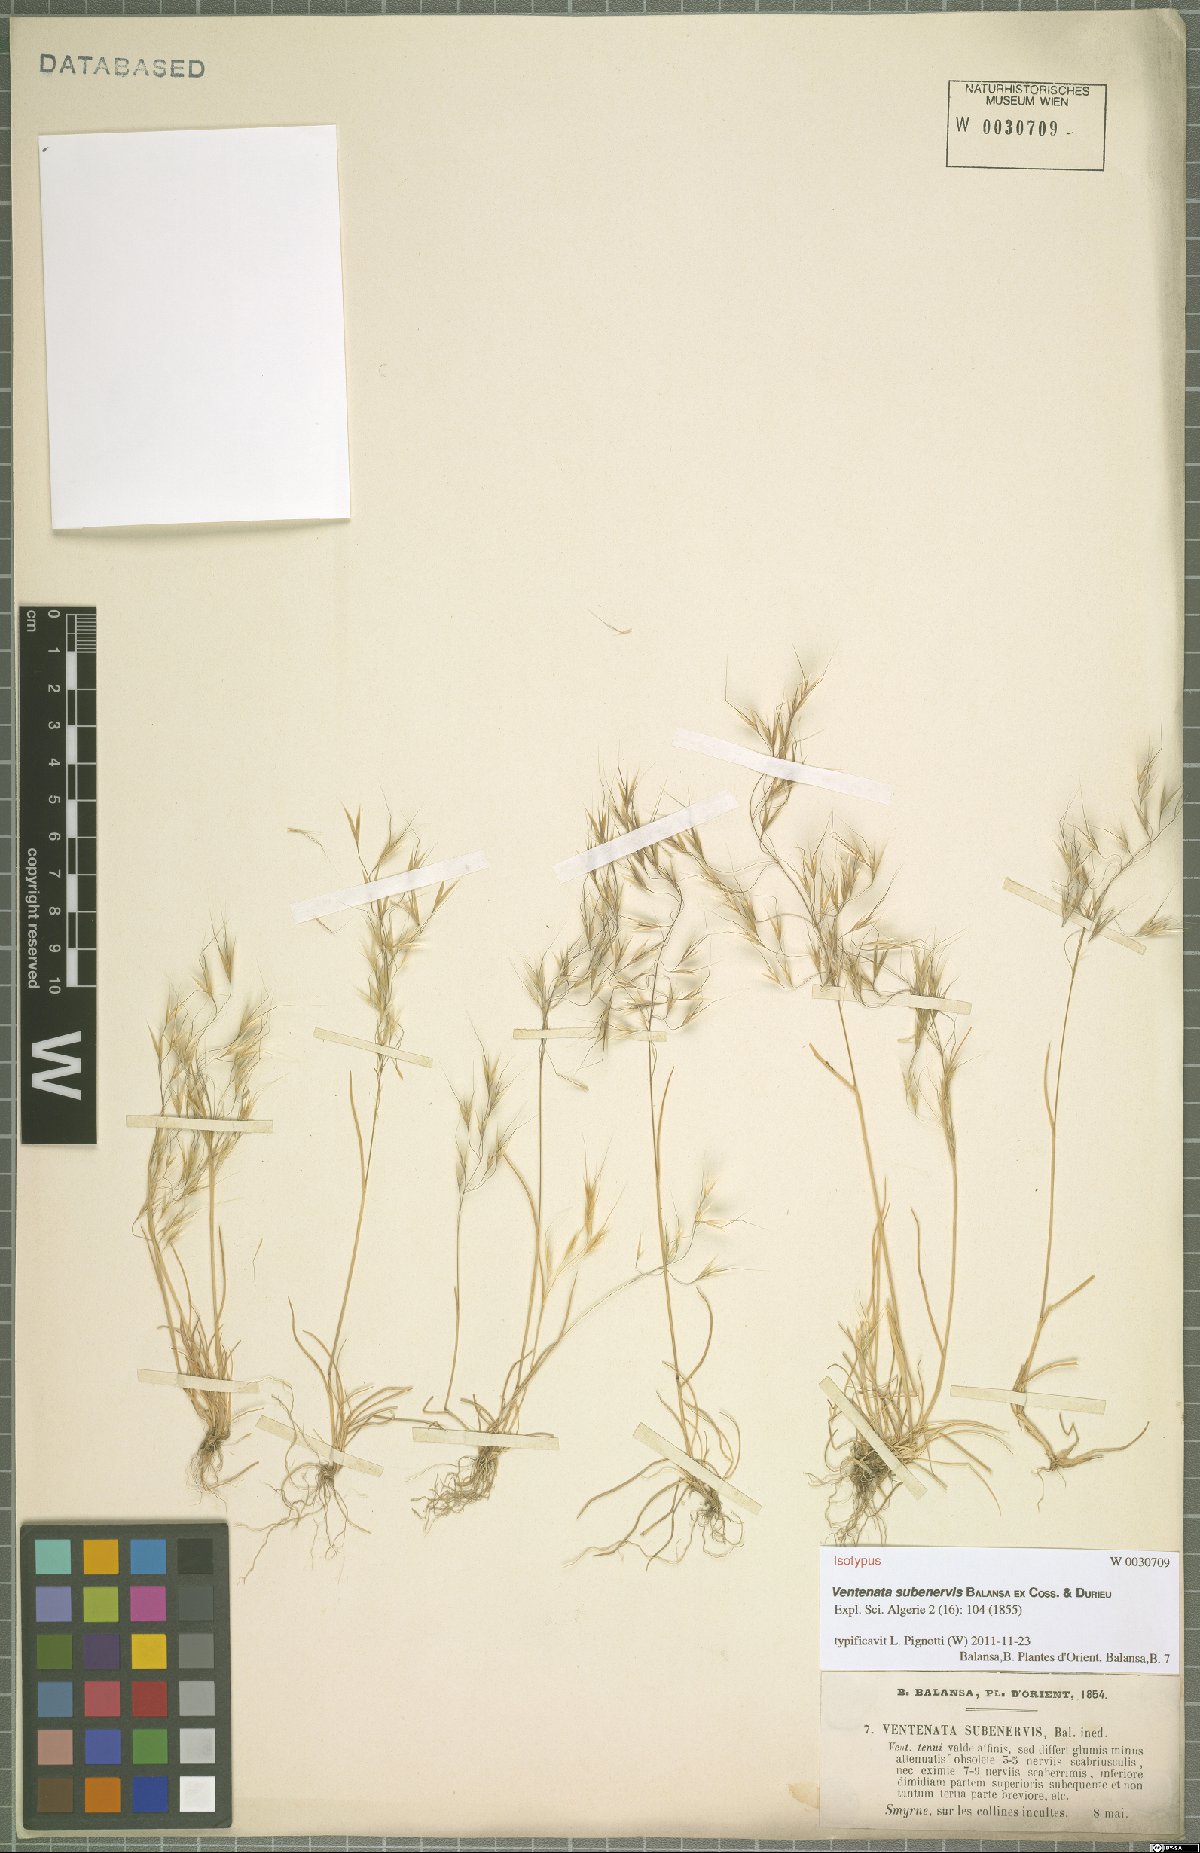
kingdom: Plantae
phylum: Tracheophyta
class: Liliopsida
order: Poales
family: Poaceae
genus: Ventenata
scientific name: Ventenata subenervis
